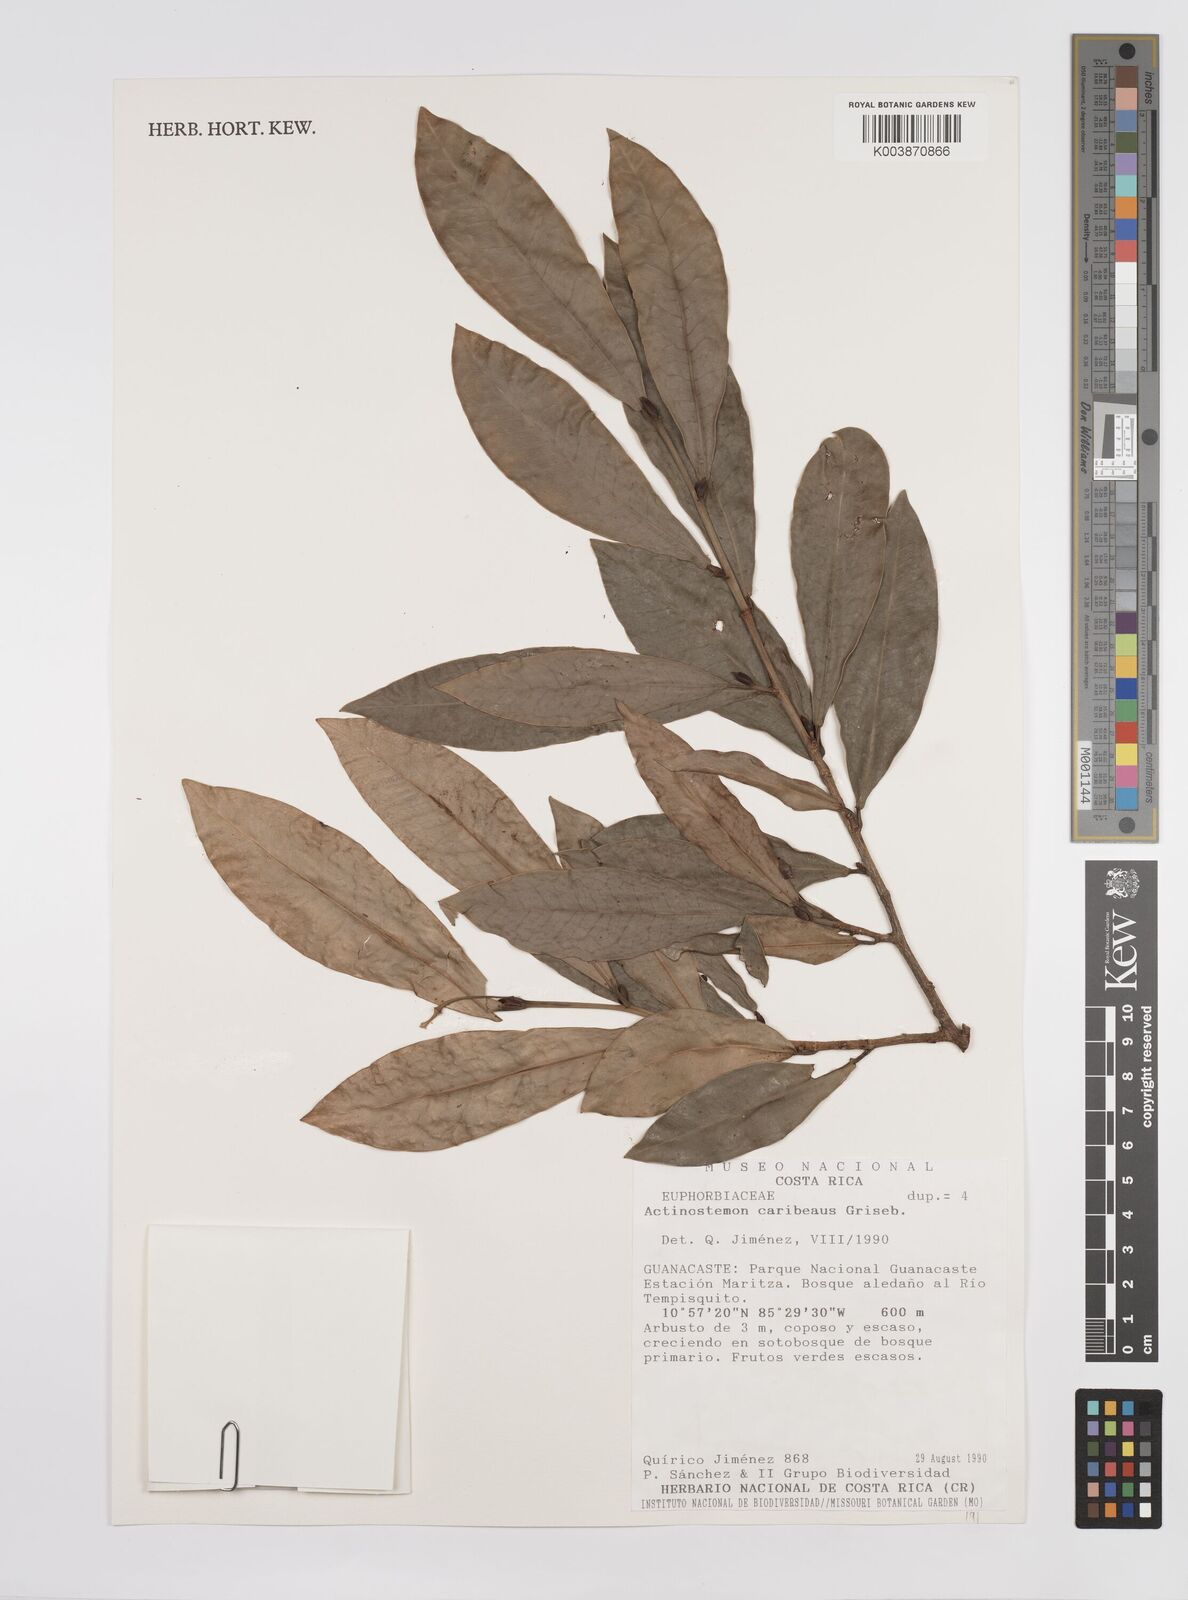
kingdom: Plantae
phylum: Tracheophyta
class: Magnoliopsida
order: Malpighiales
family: Euphorbiaceae
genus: Actinostemon
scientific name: Actinostemon caribaeus
